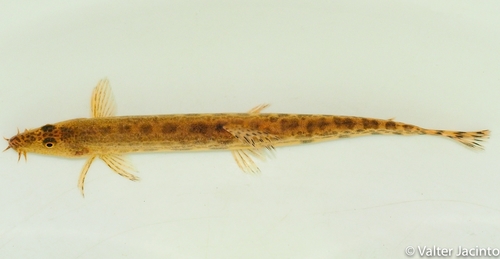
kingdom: Animalia
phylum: Chordata
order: Cypriniformes
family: Cobitidae
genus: Cobitis
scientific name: Cobitis paludica
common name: Southern iberian spined loach
